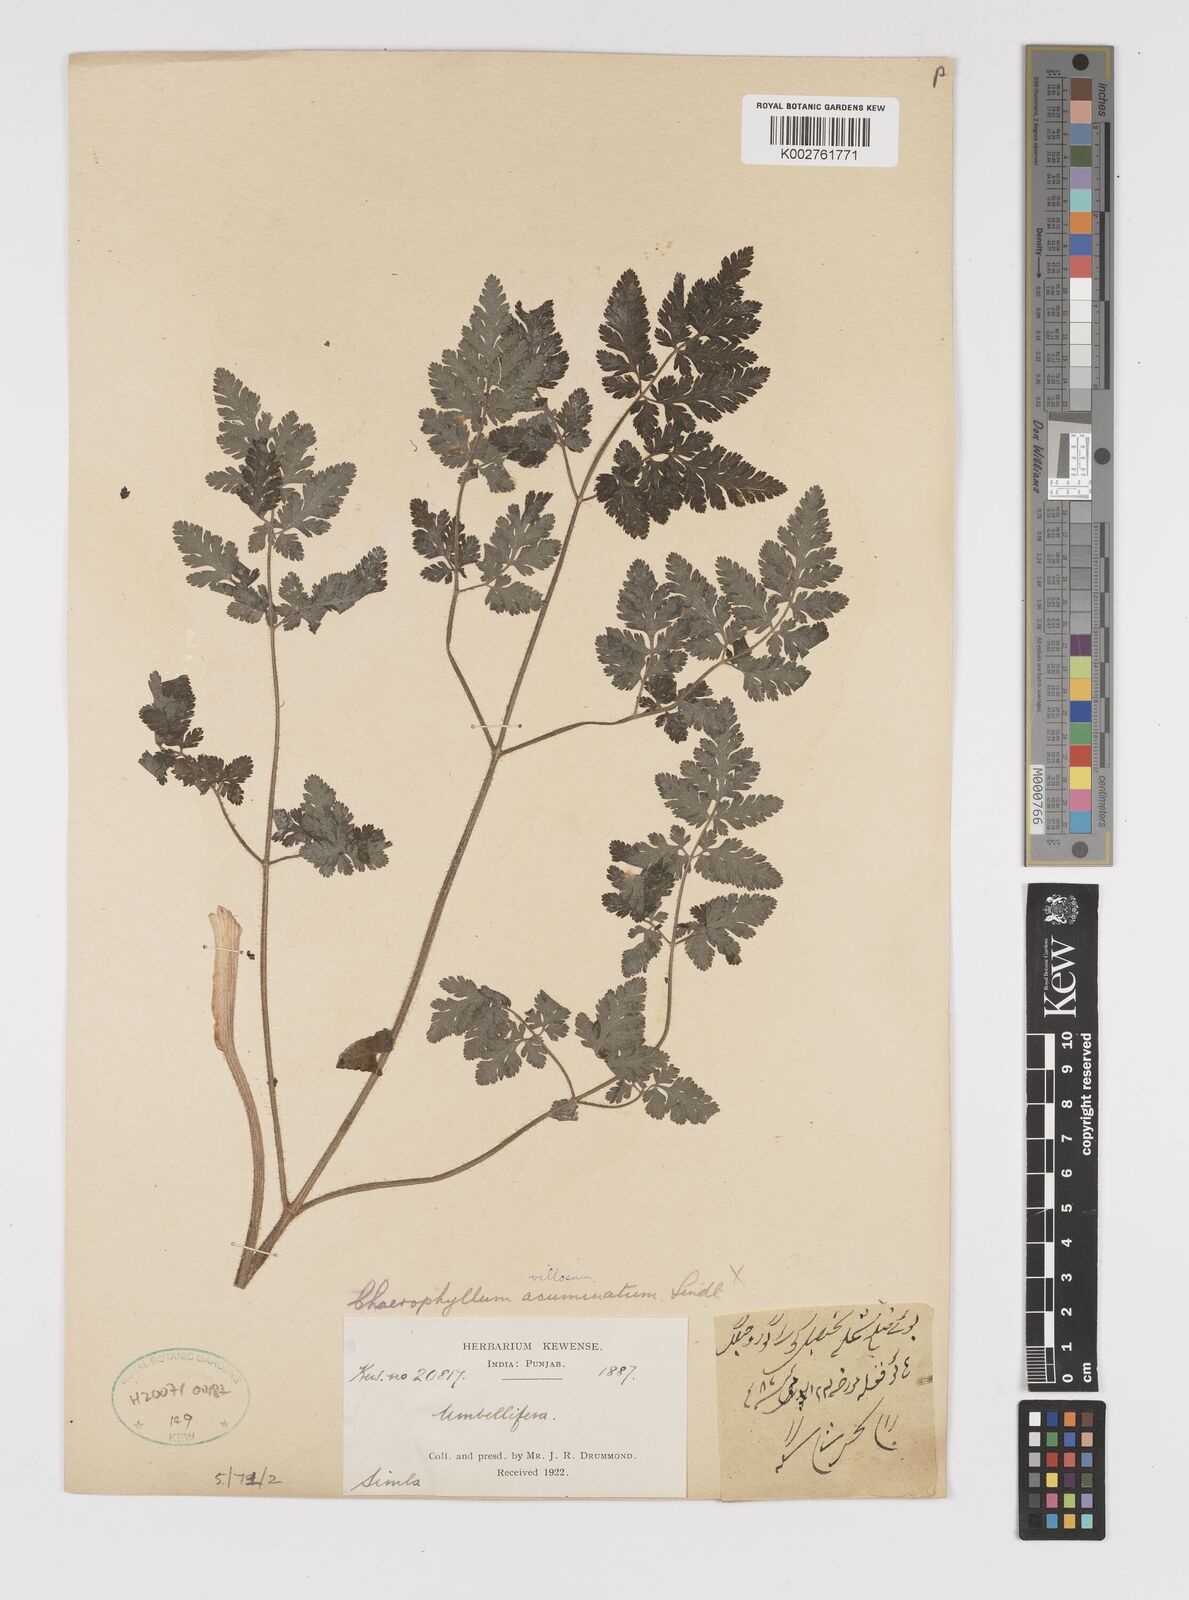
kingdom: Plantae
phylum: Tracheophyta
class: Magnoliopsida
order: Apiales
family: Apiaceae
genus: Chaerophyllum
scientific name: Chaerophyllum reflexum
